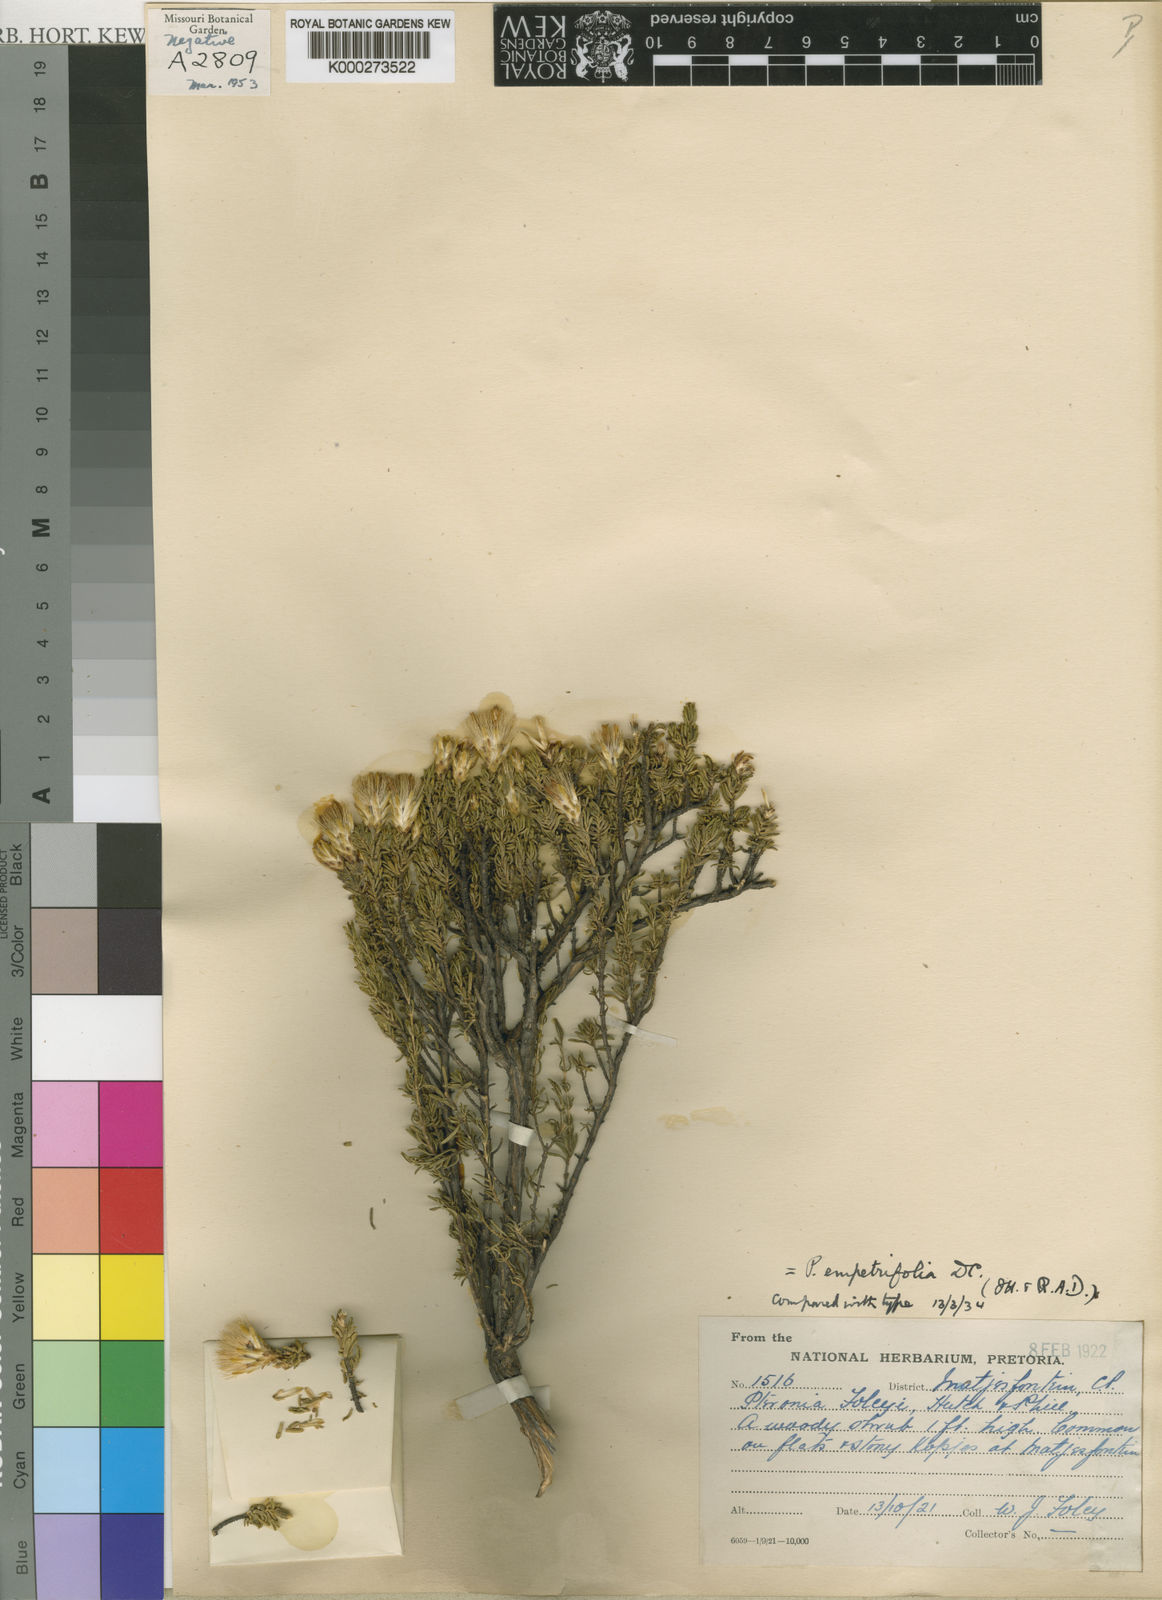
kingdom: Plantae
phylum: Tracheophyta
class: Magnoliopsida
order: Asterales
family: Asteraceae
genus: Pteronia
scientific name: Pteronia empetrifolia
